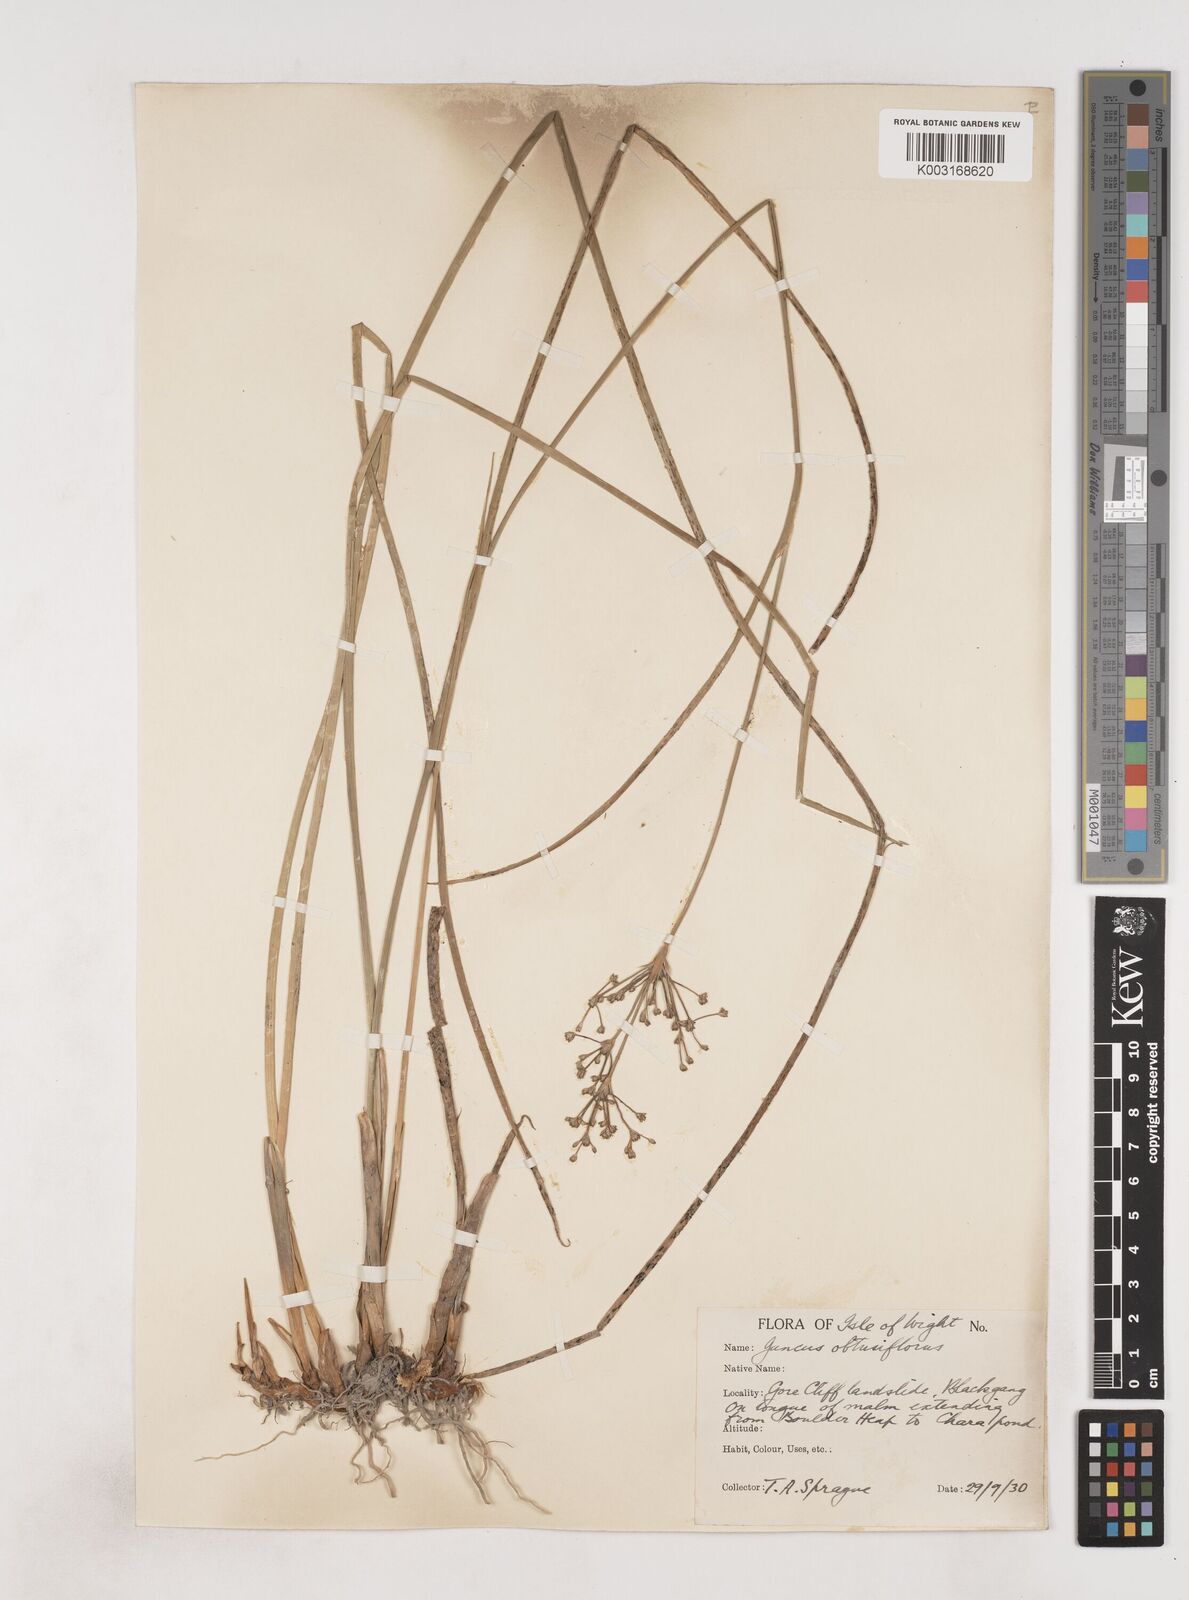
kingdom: Plantae
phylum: Tracheophyta
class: Liliopsida
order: Poales
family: Juncaceae
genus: Juncus
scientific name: Juncus subnodulosus
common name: Blunt-flowered rush
